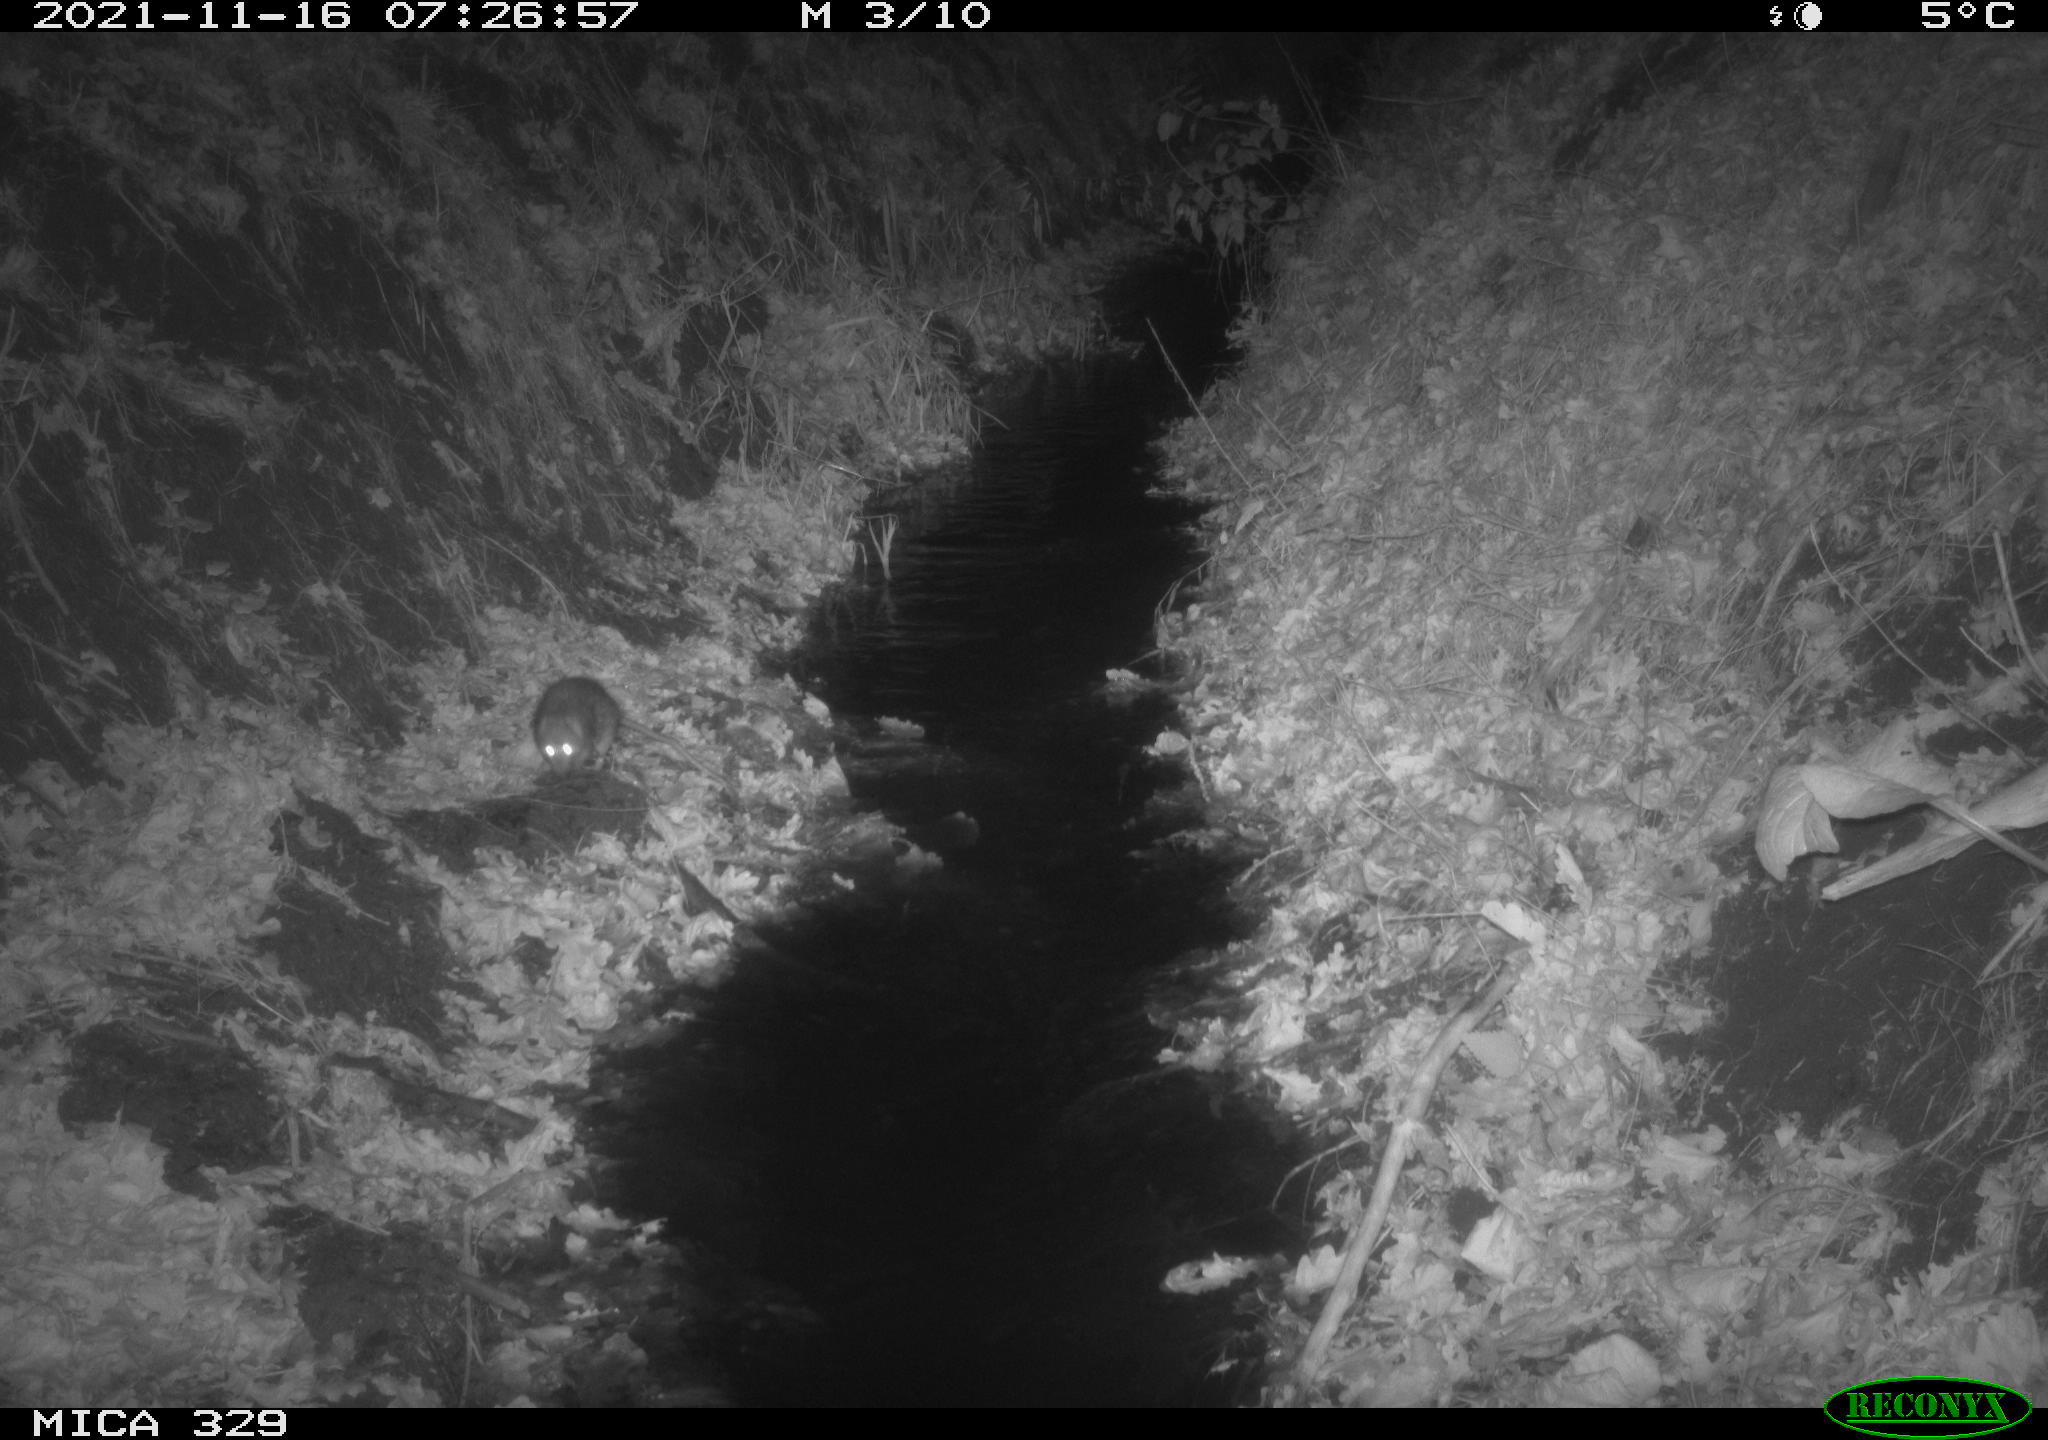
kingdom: Animalia
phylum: Chordata
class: Mammalia
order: Rodentia
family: Muridae
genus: Rattus
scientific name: Rattus norvegicus
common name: Brown rat
